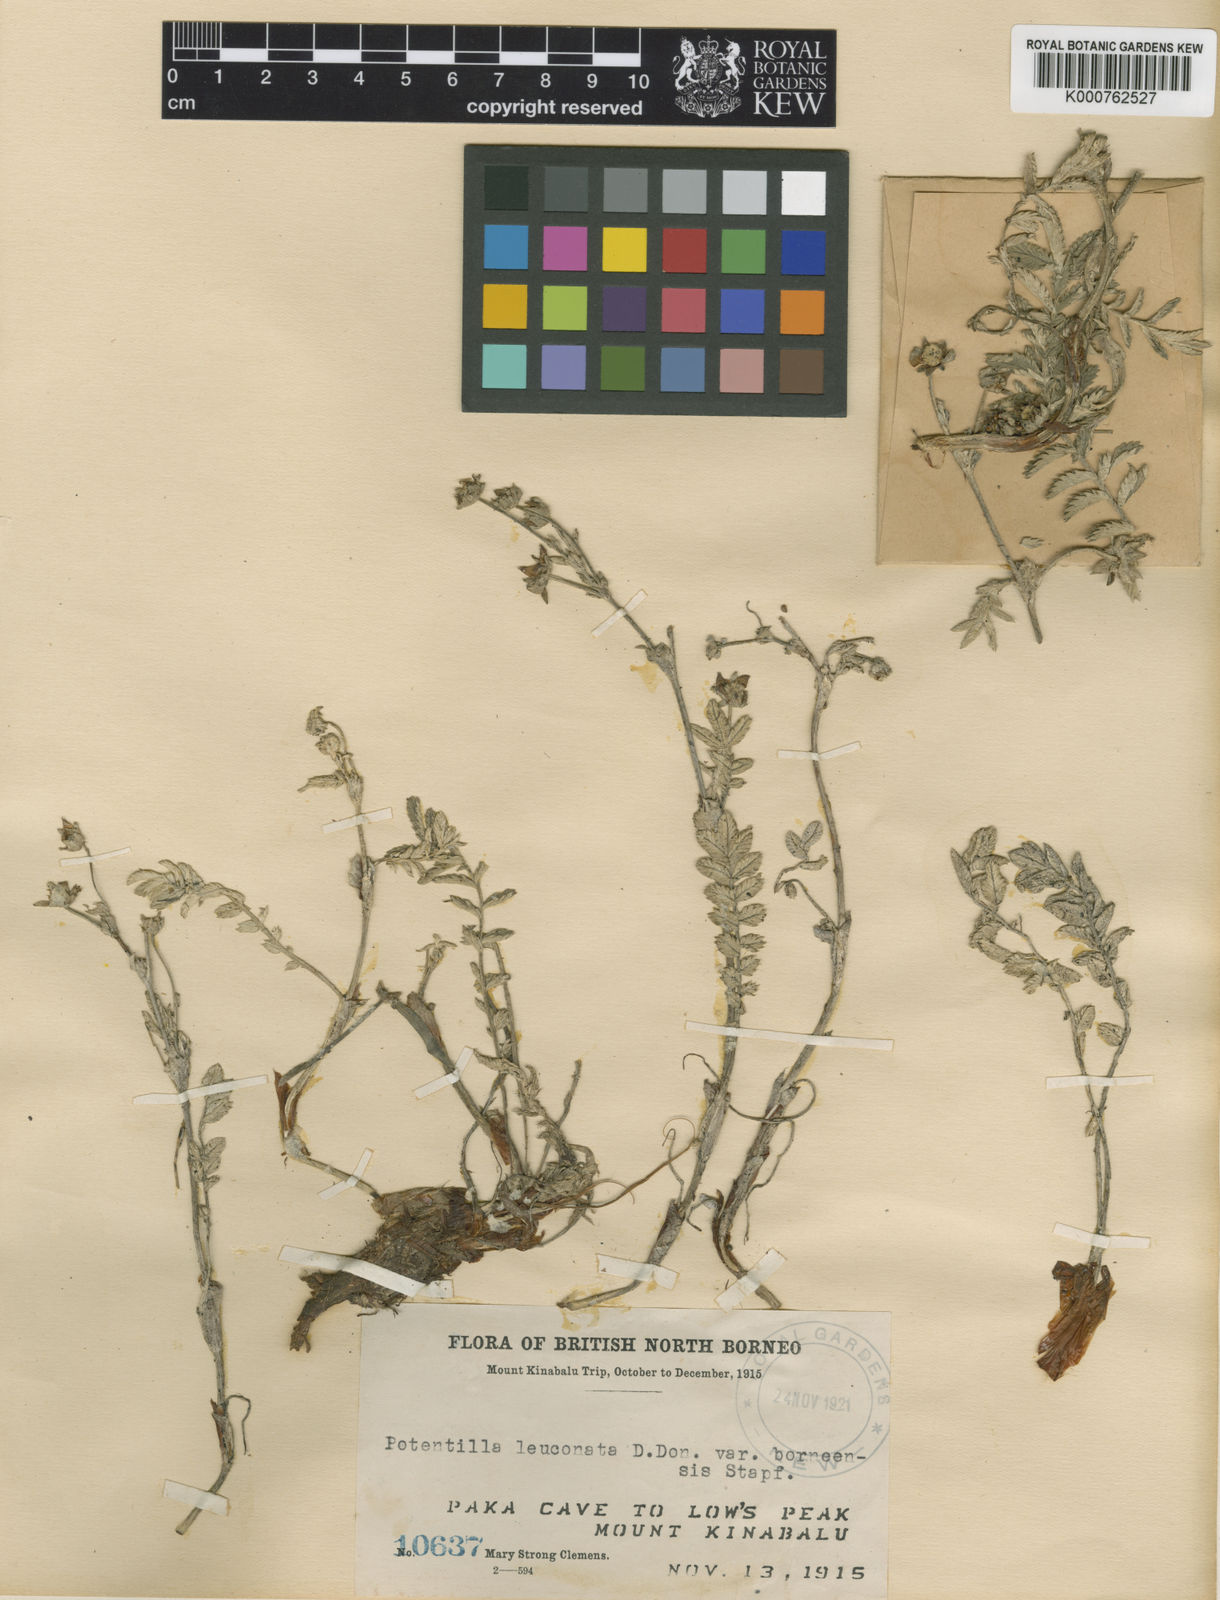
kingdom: Plantae
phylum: Tracheophyta
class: Magnoliopsida
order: Rosales
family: Rosaceae
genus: Argentina
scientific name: Argentina borneensis
